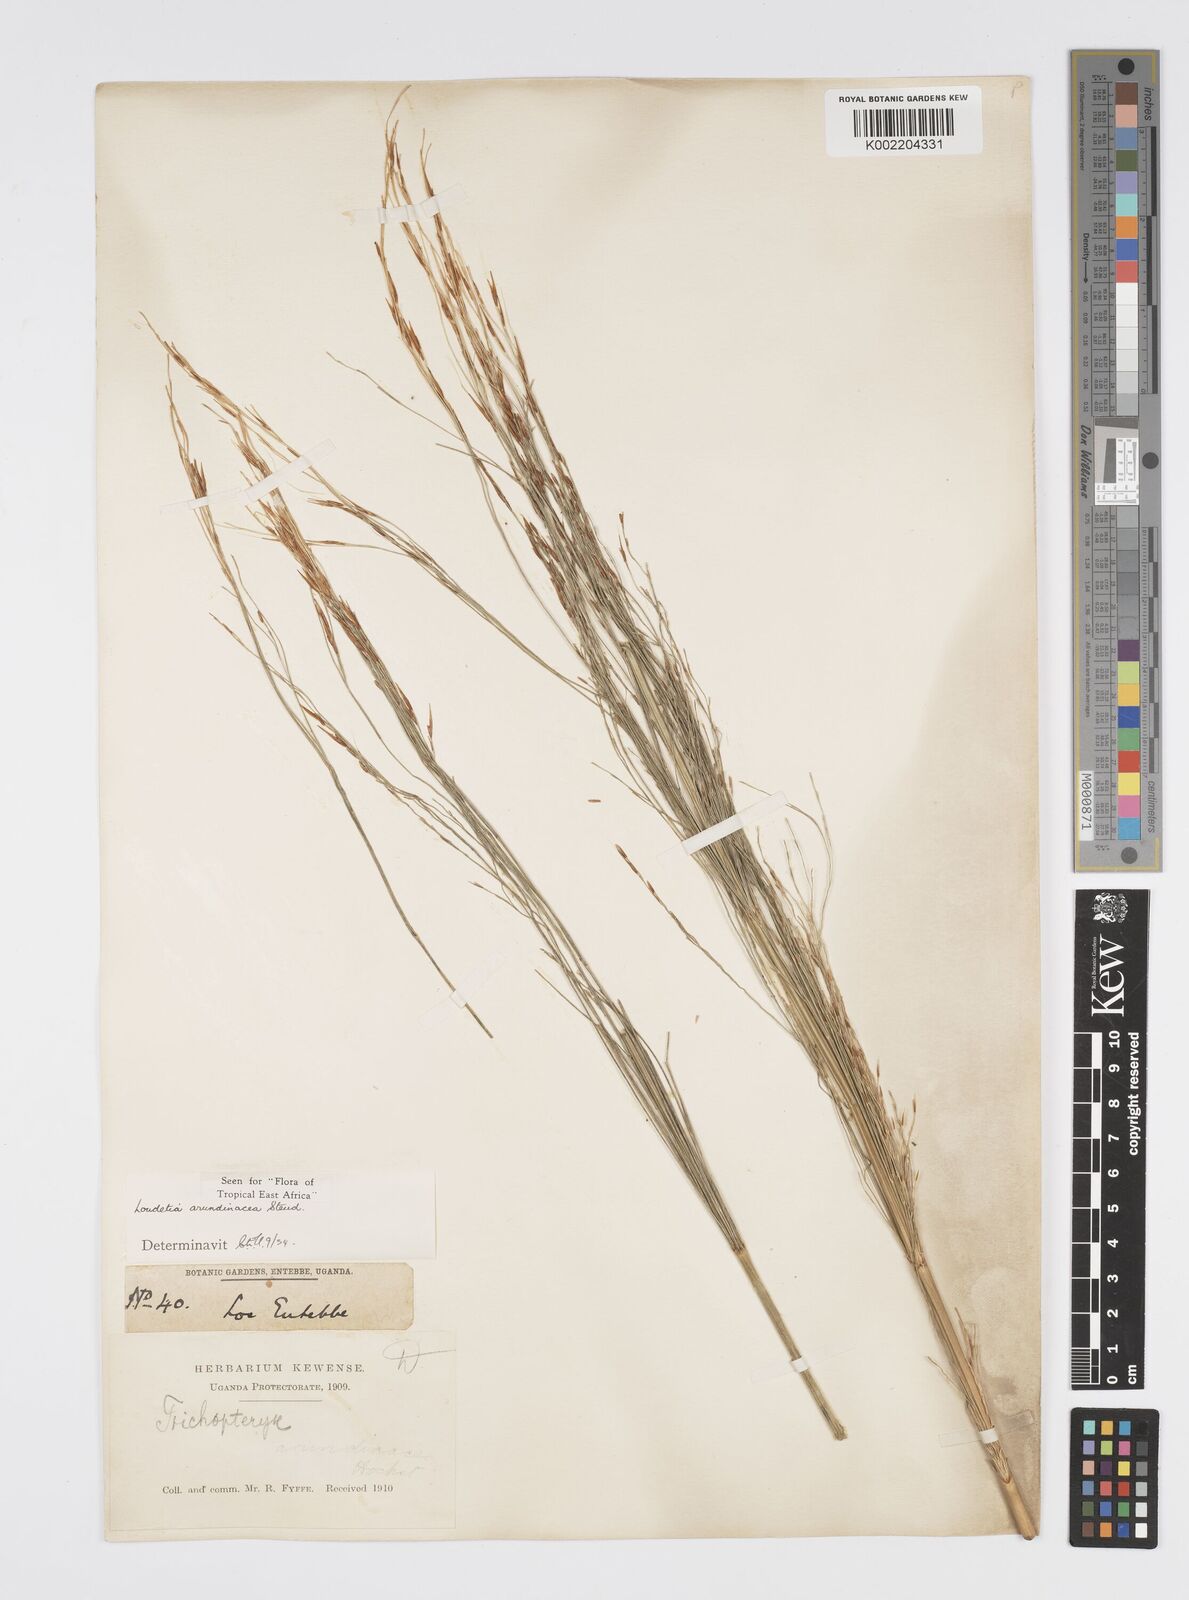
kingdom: Plantae
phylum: Tracheophyta
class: Liliopsida
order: Poales
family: Poaceae
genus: Loudetia
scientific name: Loudetia arundinacea
